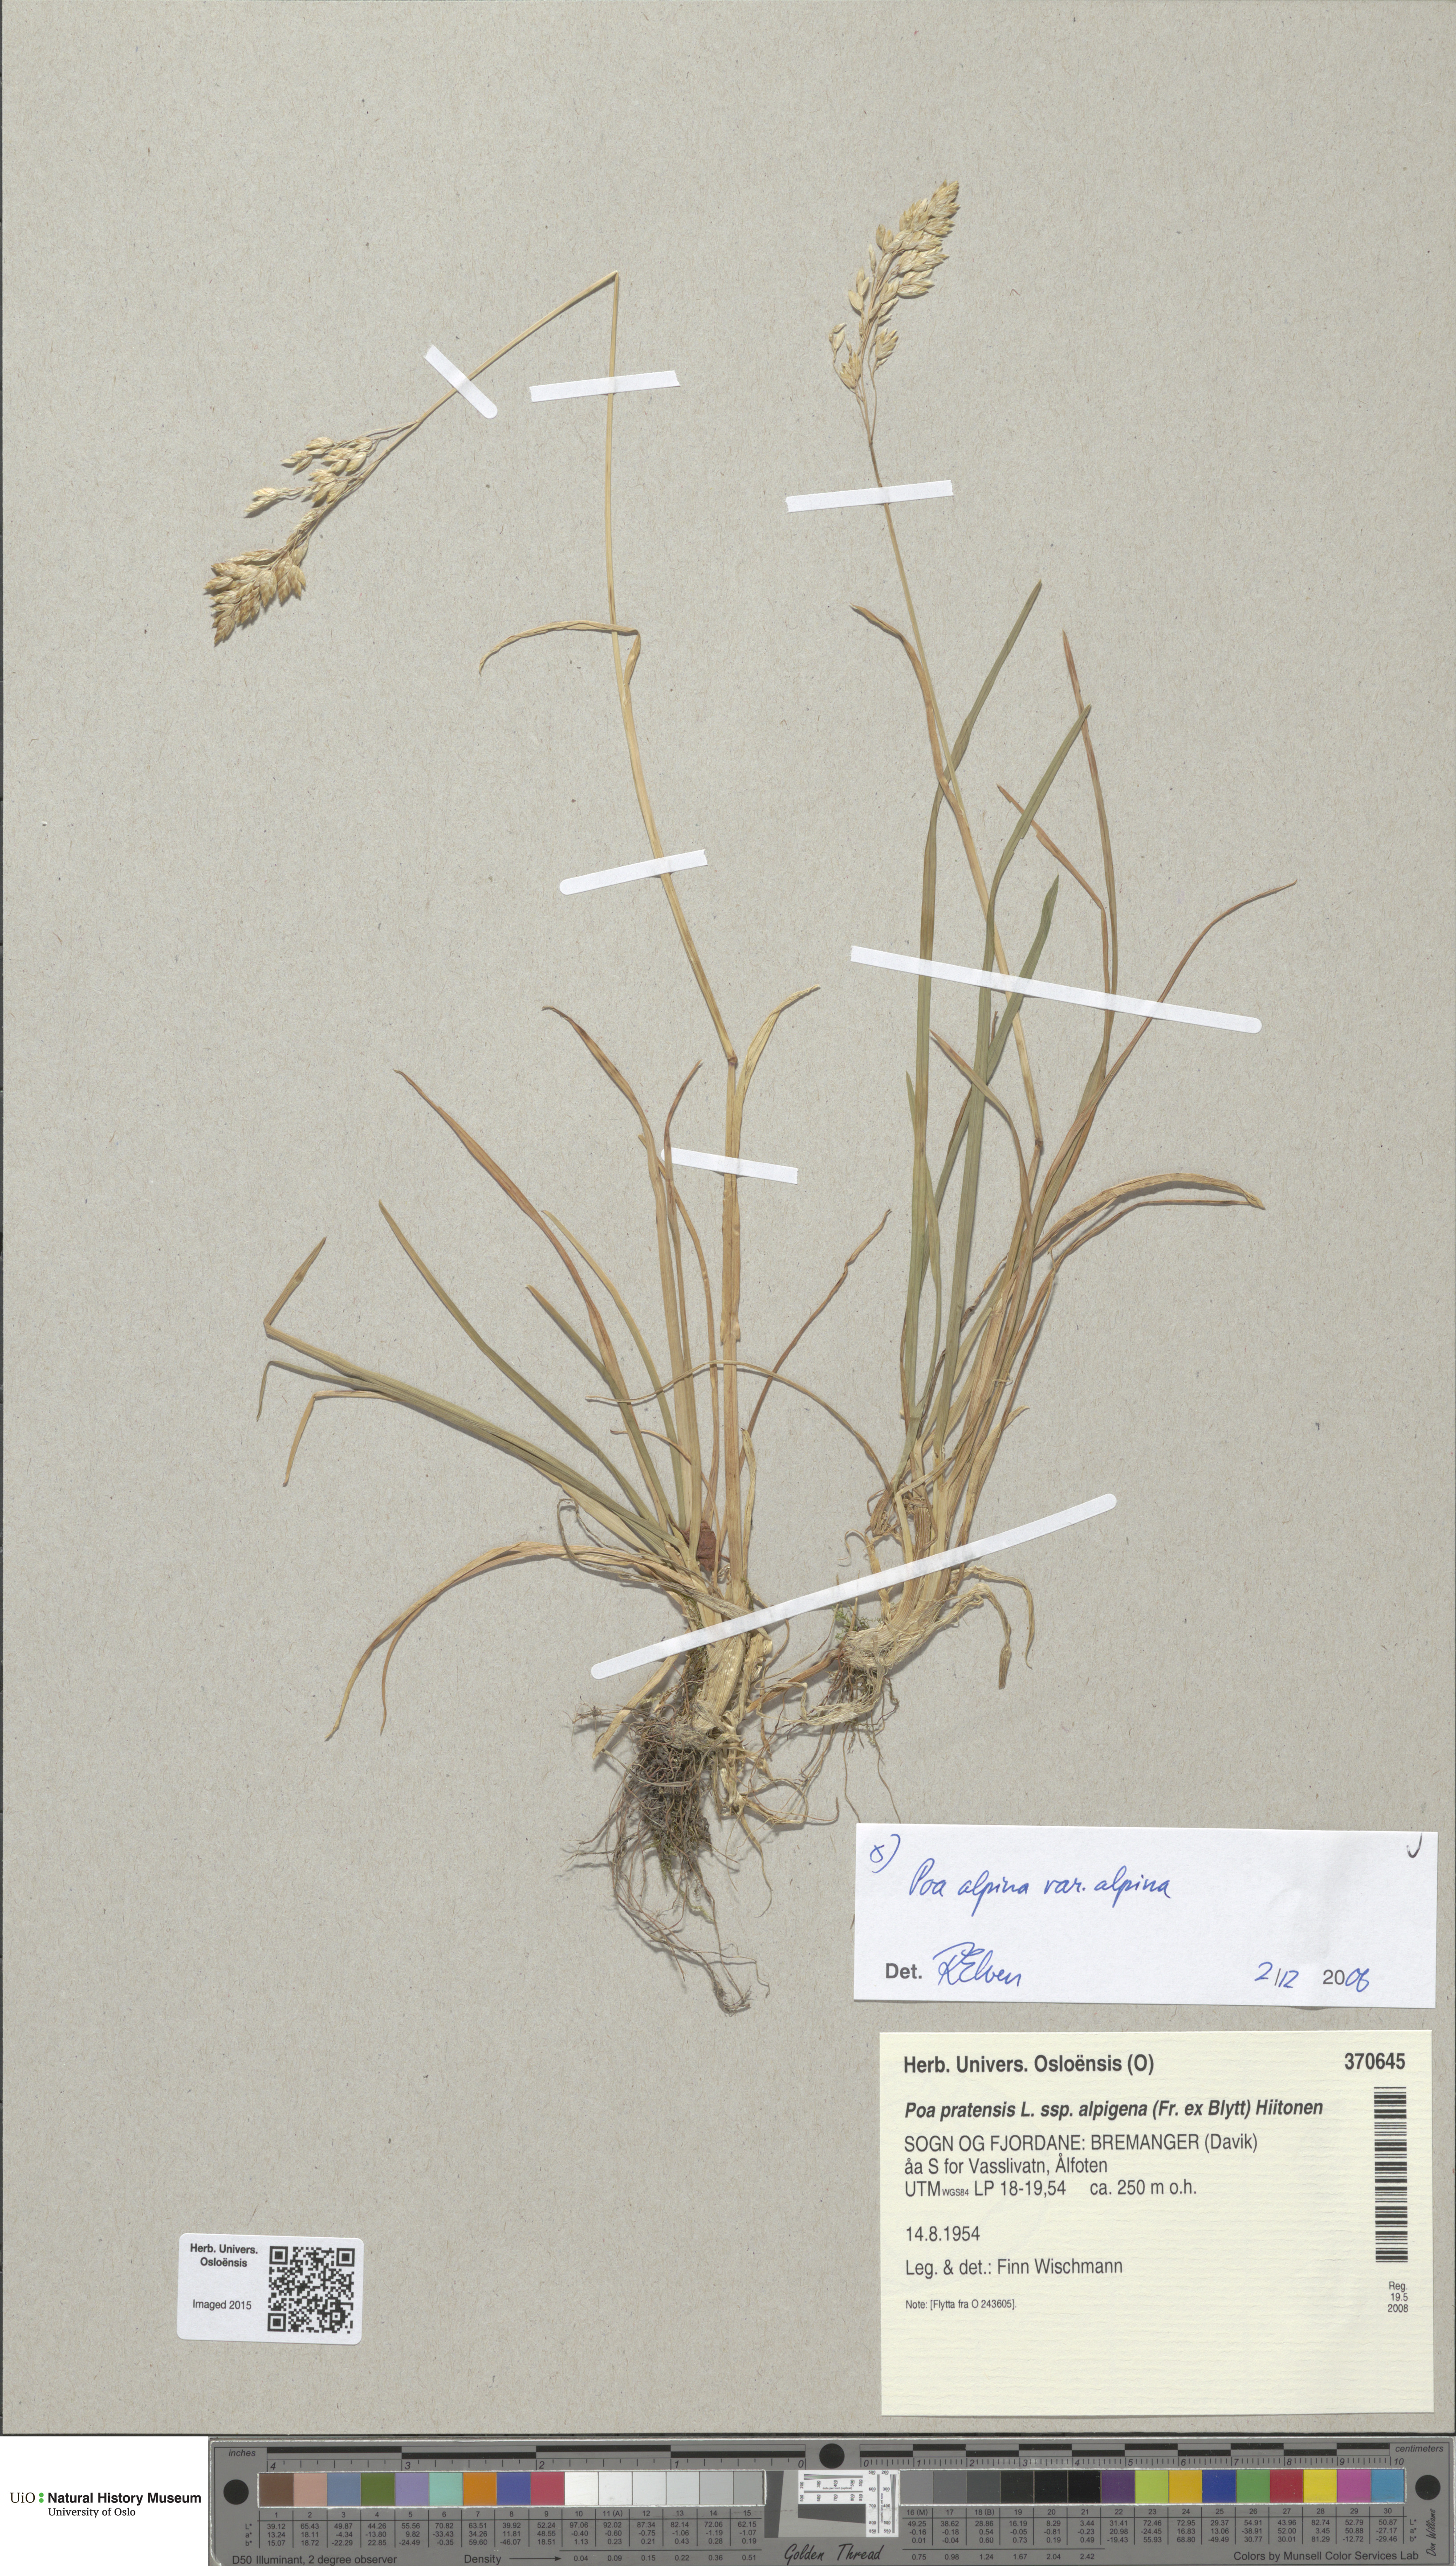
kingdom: Plantae
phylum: Tracheophyta
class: Liliopsida
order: Poales
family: Poaceae
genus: Poa
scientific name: Poa alpina
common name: Alpine bluegrass
